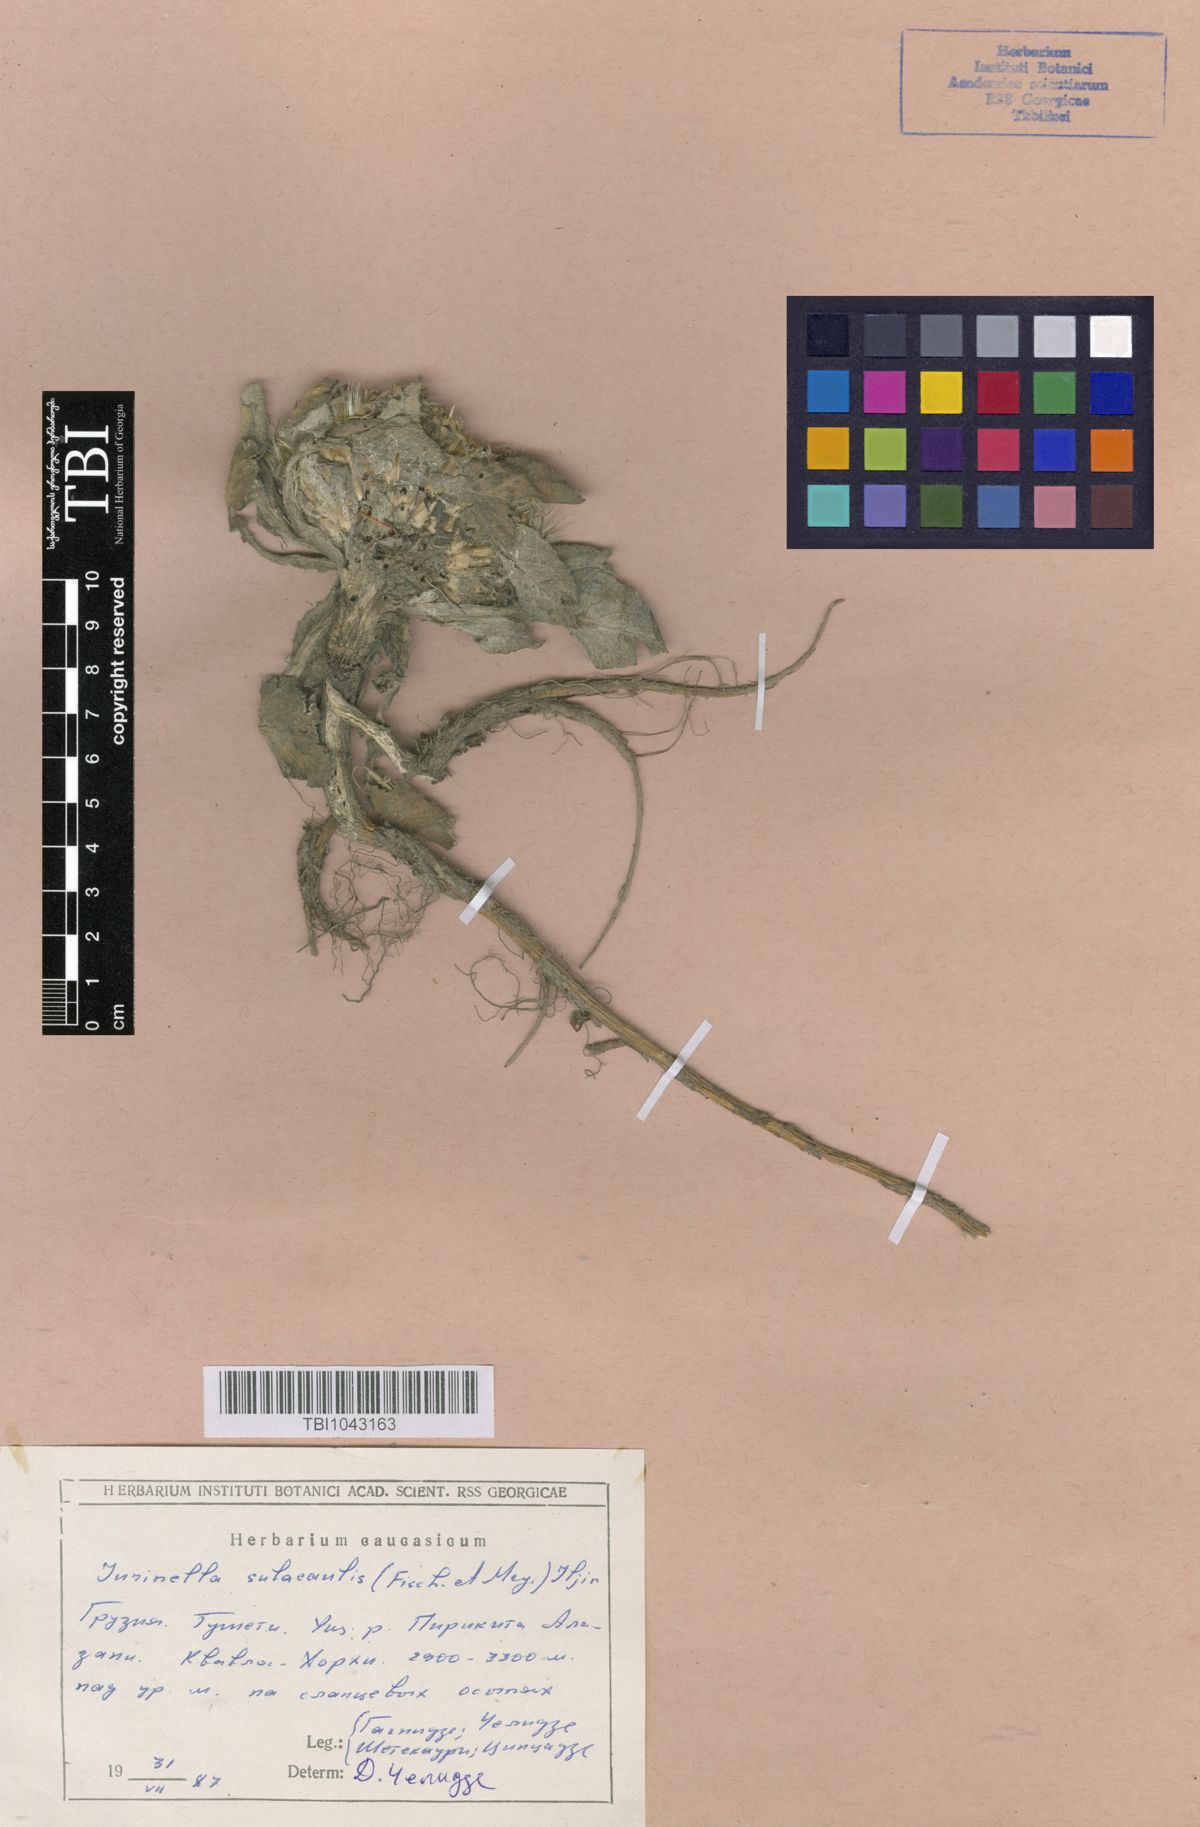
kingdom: Plantae
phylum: Tracheophyta
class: Magnoliopsida
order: Asterales
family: Asteraceae
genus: Jurinea
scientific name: Jurinea moschus
